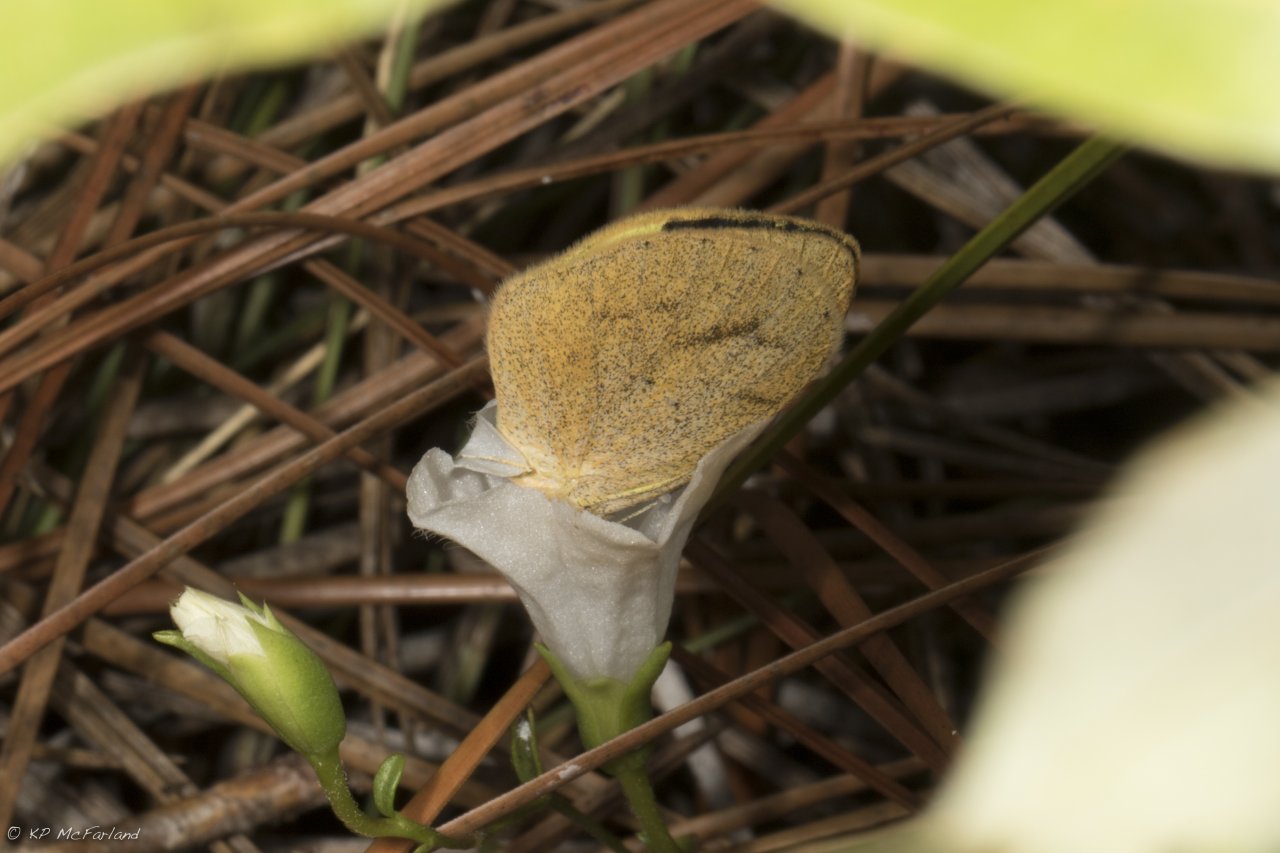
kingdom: Animalia
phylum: Arthropoda
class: Insecta
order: Lepidoptera
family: Pieridae
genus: Eurema
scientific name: Eurema daira
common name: Barred Yellow
